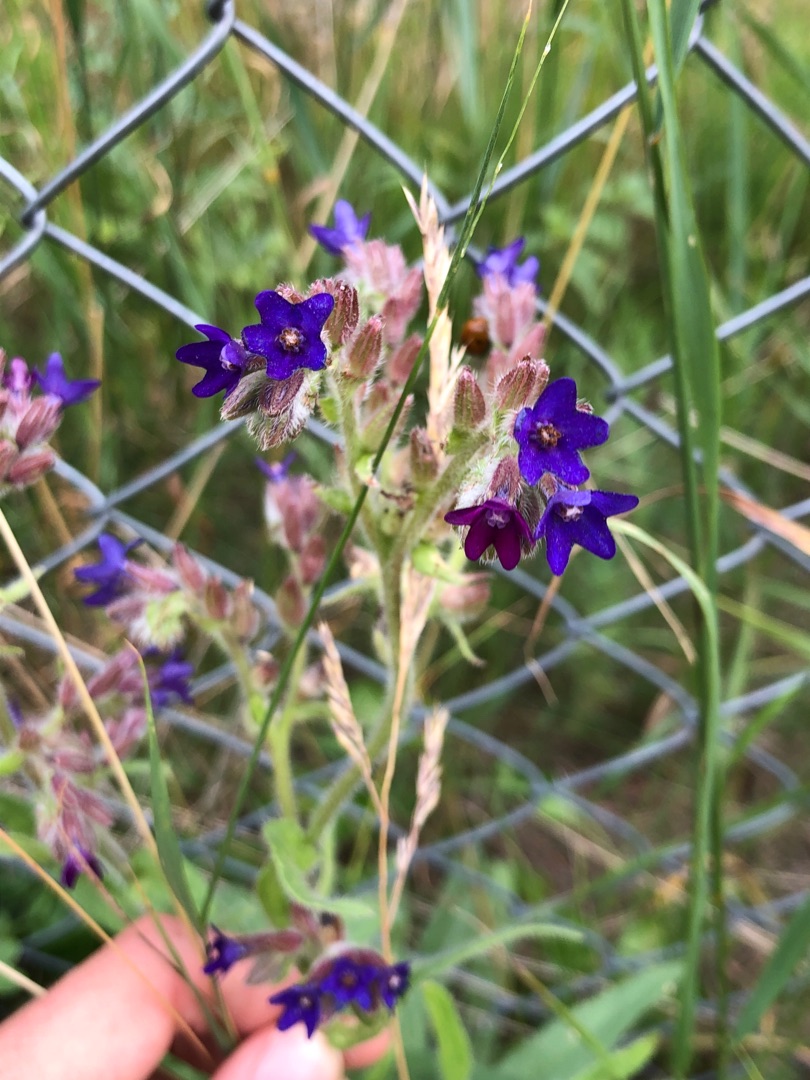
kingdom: Plantae
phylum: Tracheophyta
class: Magnoliopsida
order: Boraginales
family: Boraginaceae
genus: Anchusa
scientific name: Anchusa officinalis
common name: Læge-oksetunge
